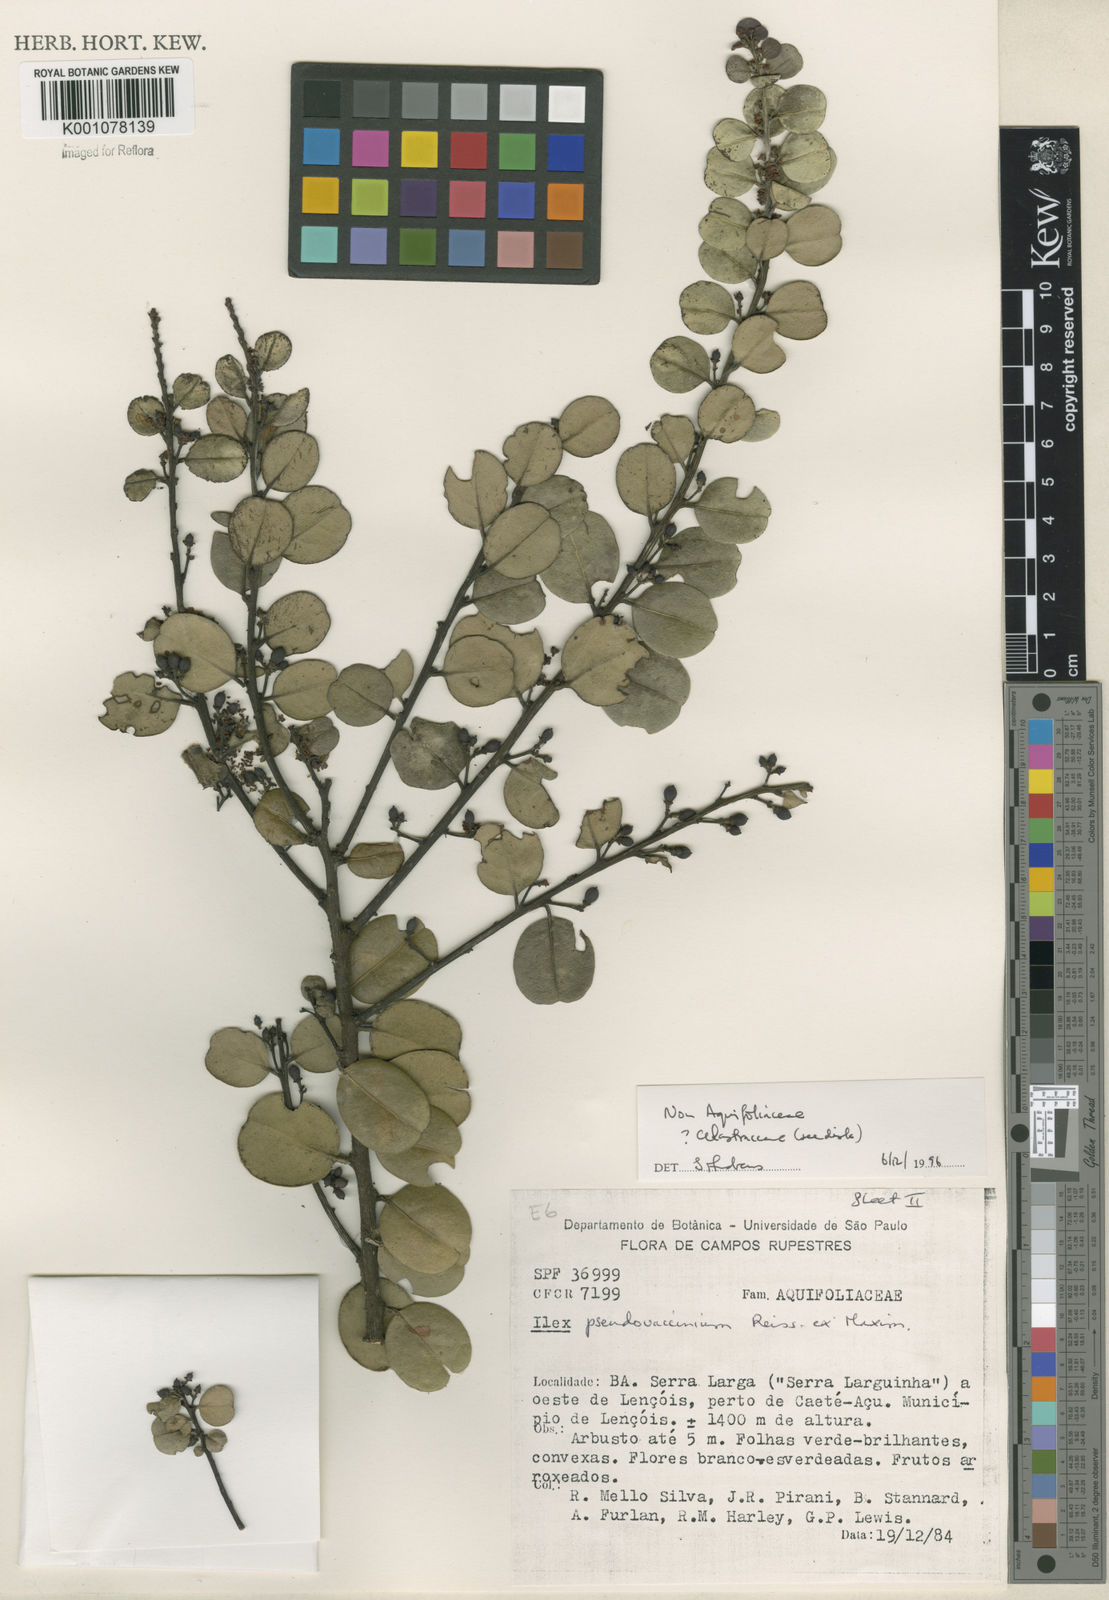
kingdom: Plantae
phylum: Tracheophyta
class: Magnoliopsida
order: Celastrales
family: Celastraceae
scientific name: Celastraceae
